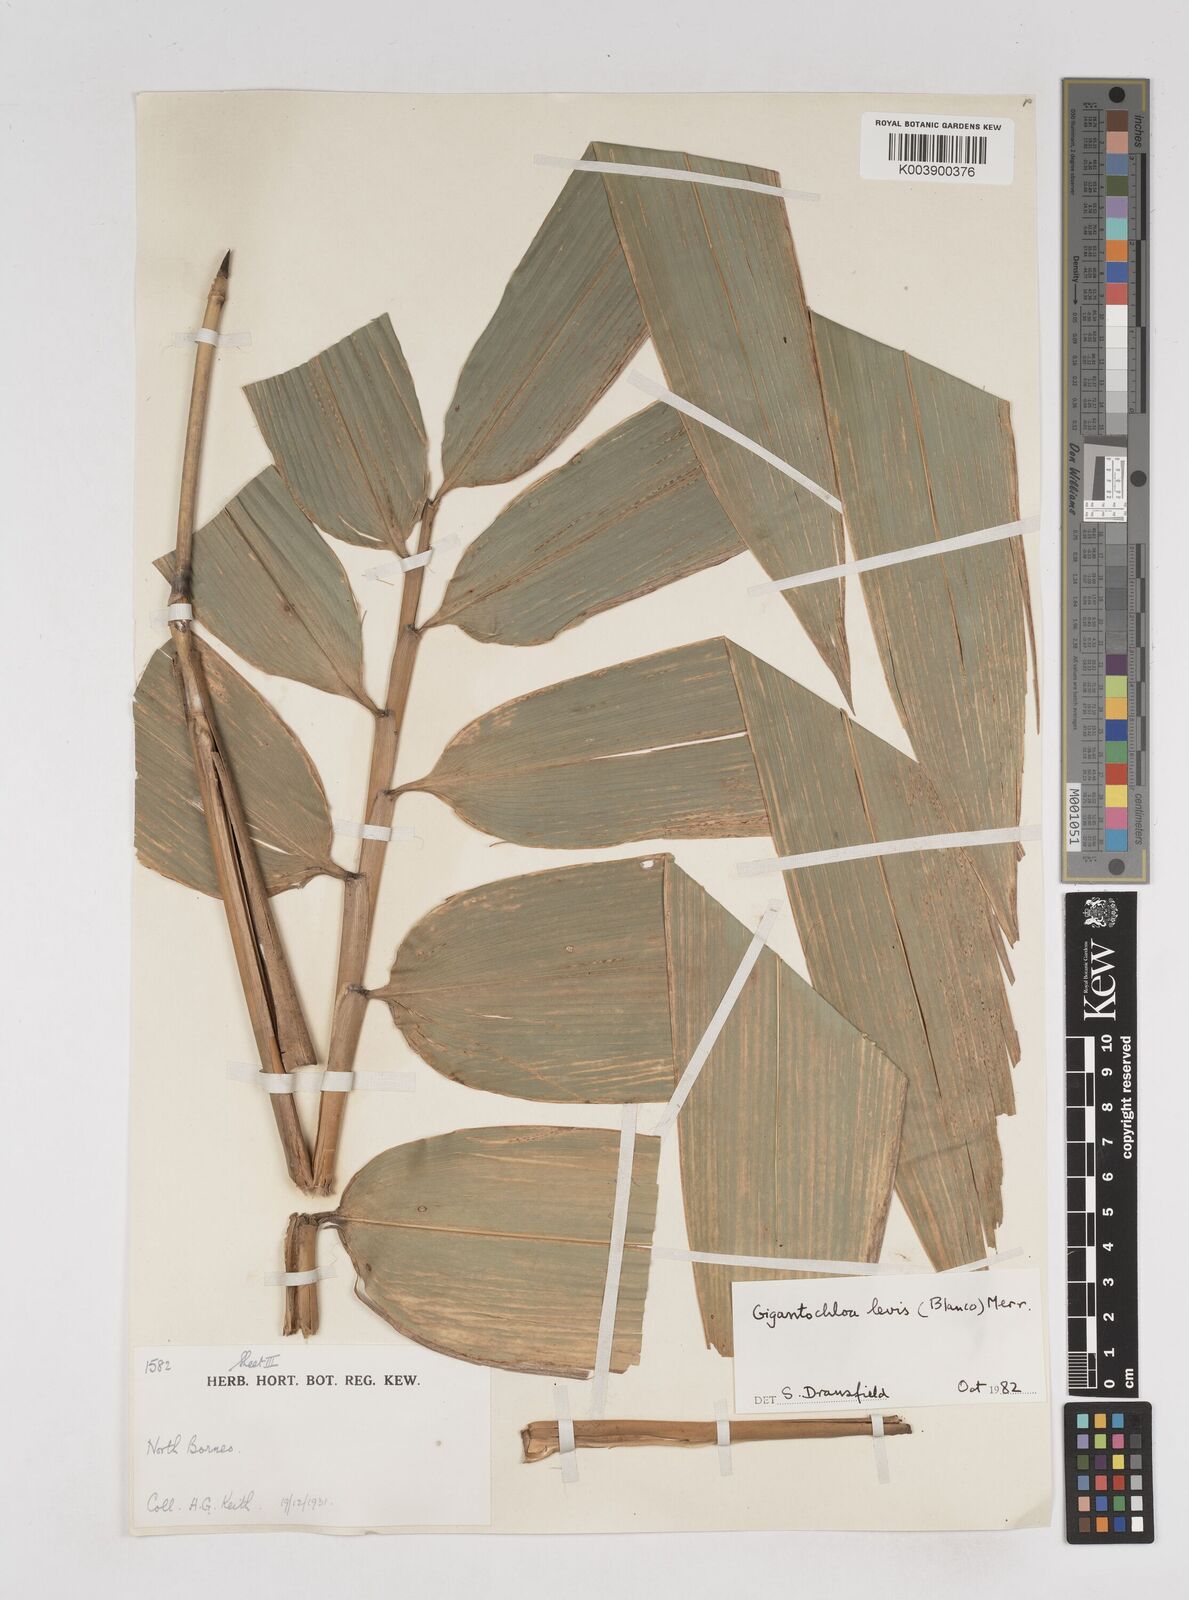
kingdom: Plantae
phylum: Tracheophyta
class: Liliopsida
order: Poales
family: Poaceae
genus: Gigantochloa
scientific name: Gigantochloa levis
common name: Smooth-shoot gigantochloa
